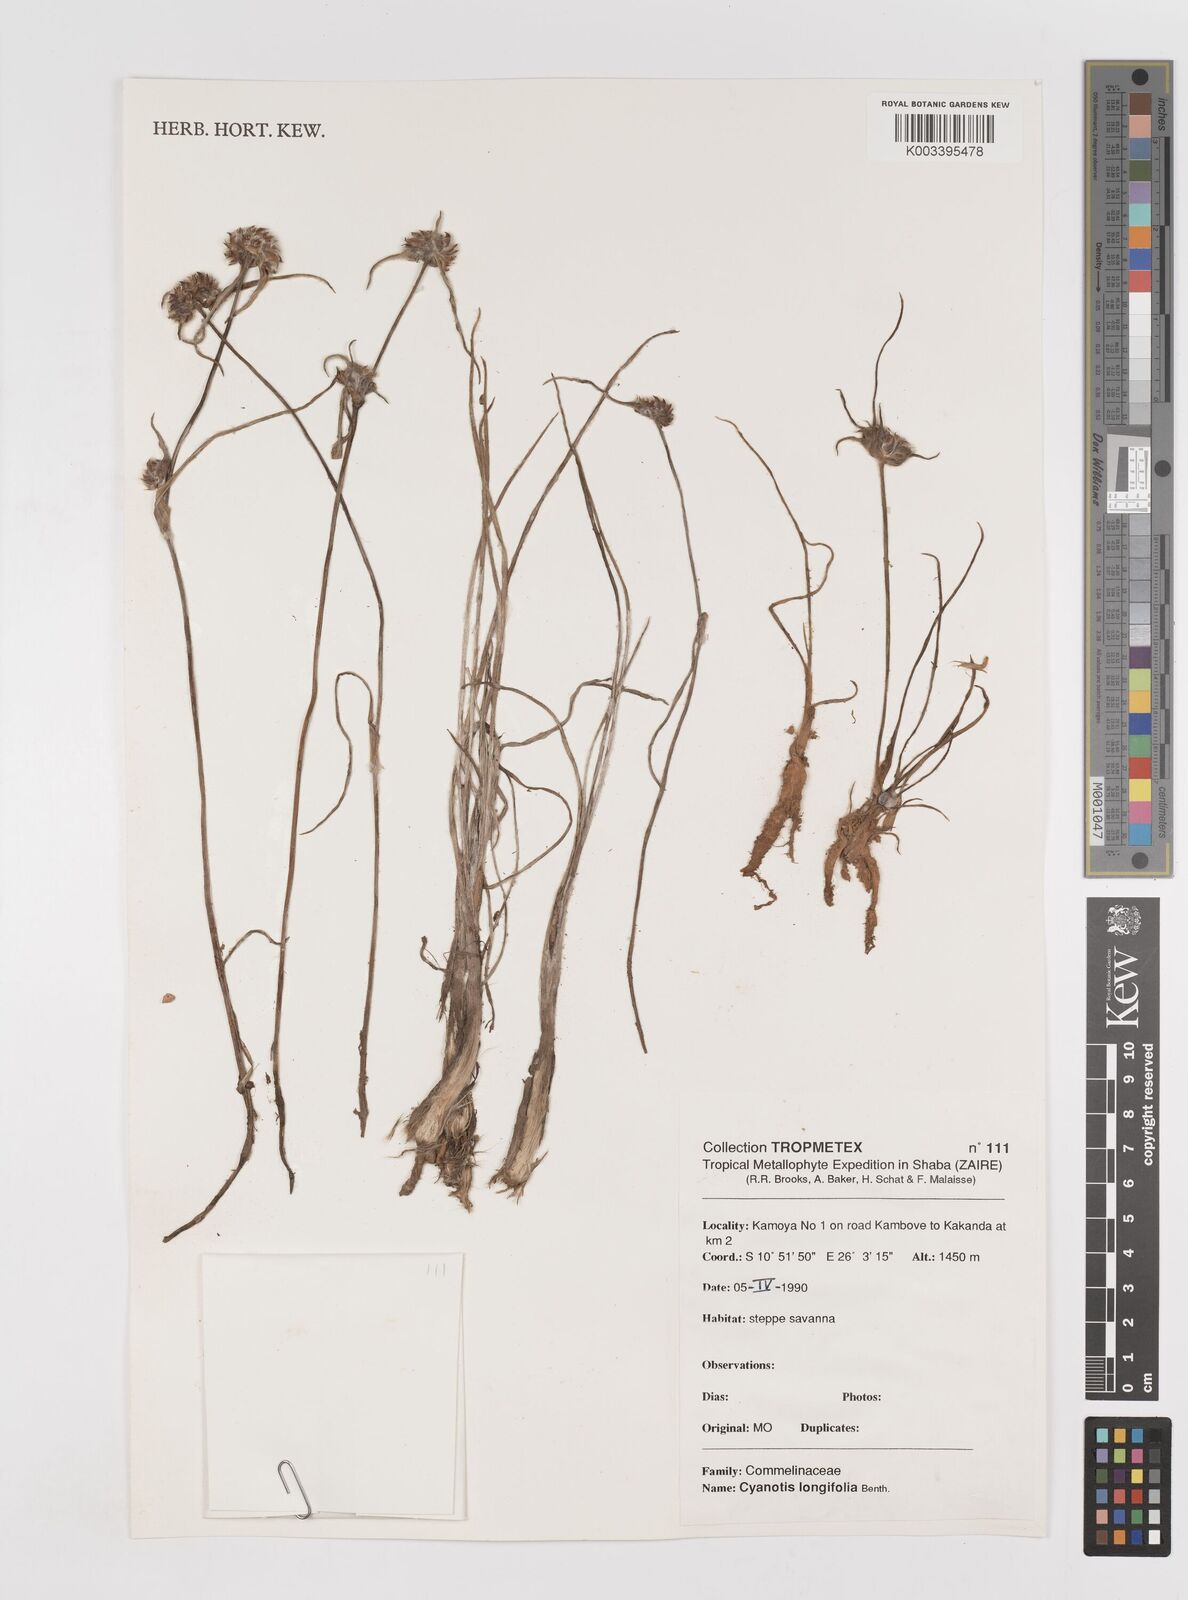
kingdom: Plantae
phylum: Tracheophyta
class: Liliopsida
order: Commelinales
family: Commelinaceae
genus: Cyanotis
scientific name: Cyanotis longifolia
